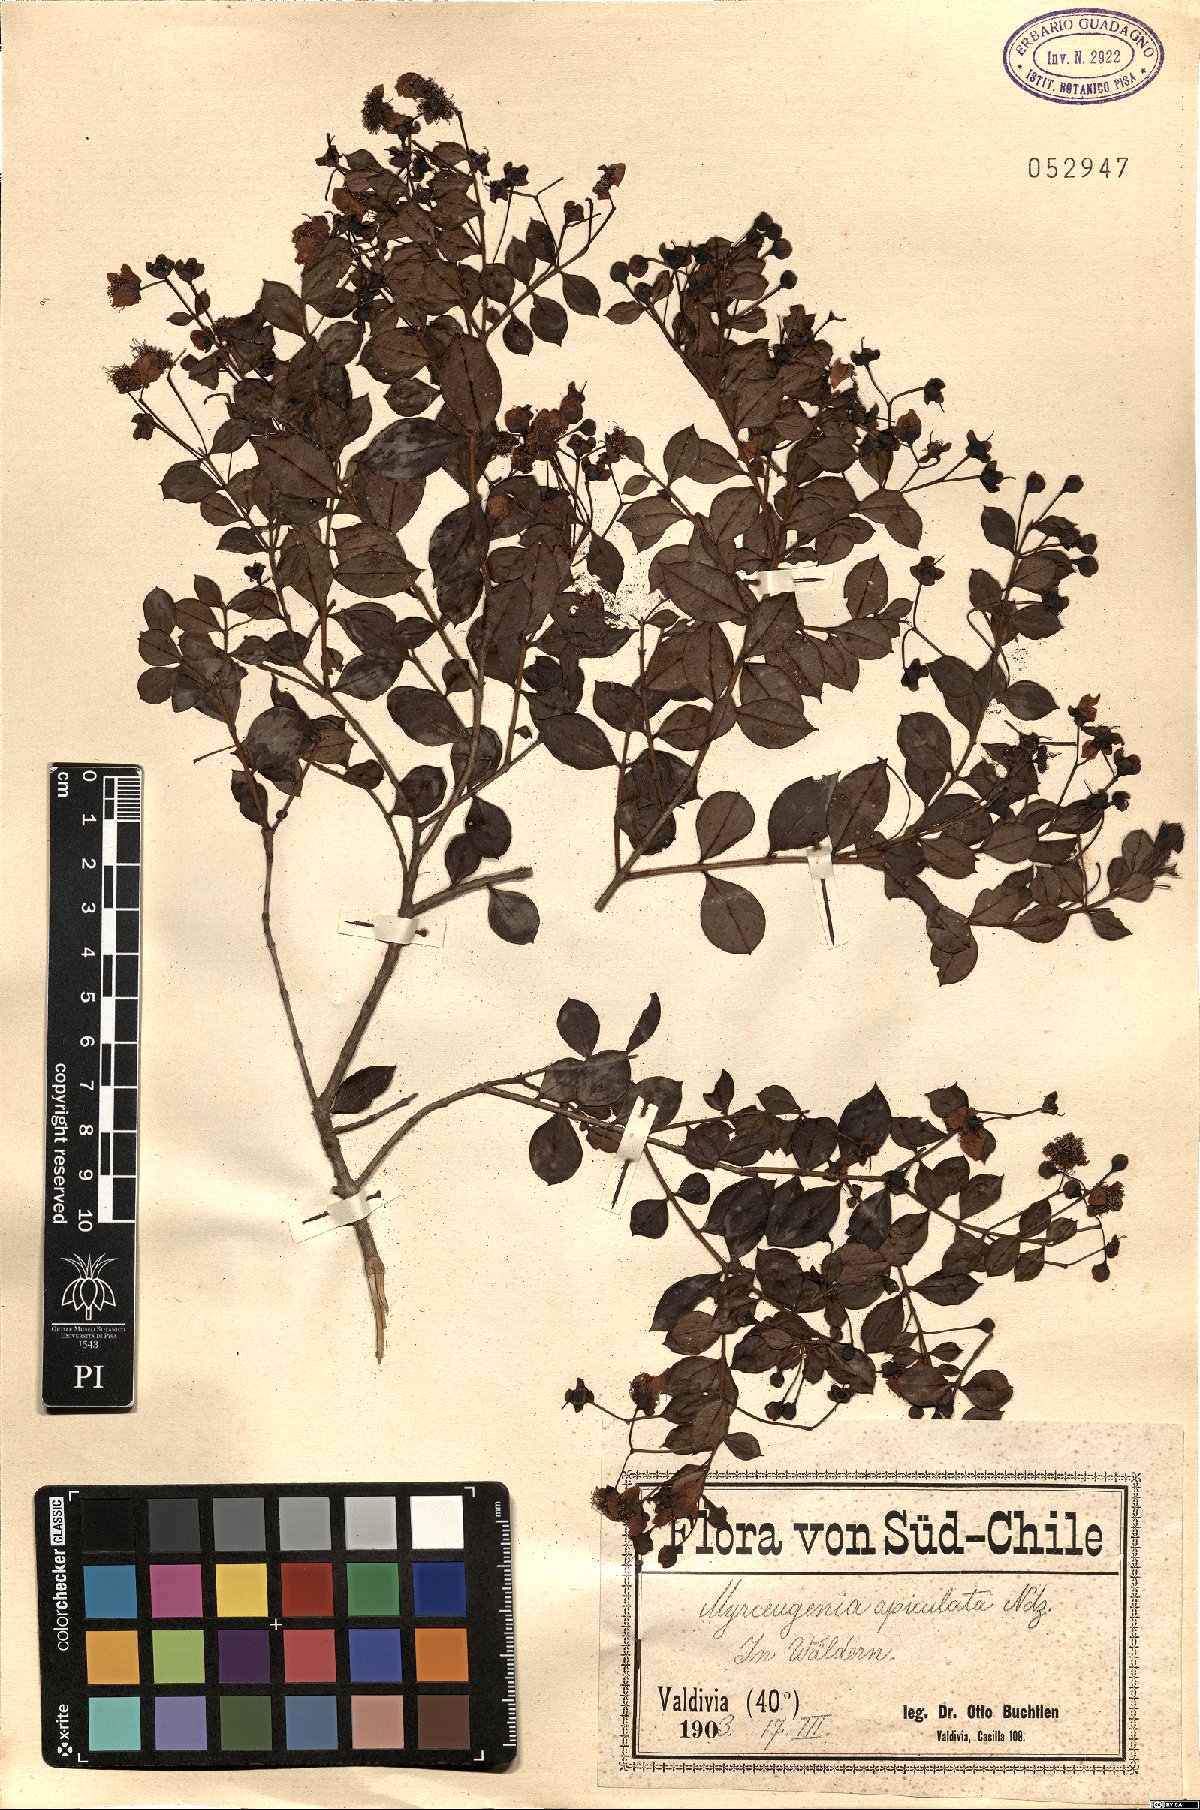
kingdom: Plantae
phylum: Tracheophyta
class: Magnoliopsida
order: Myrtales
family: Myrtaceae
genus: Luma
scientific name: Luma apiculata
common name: Chilean myrtle
